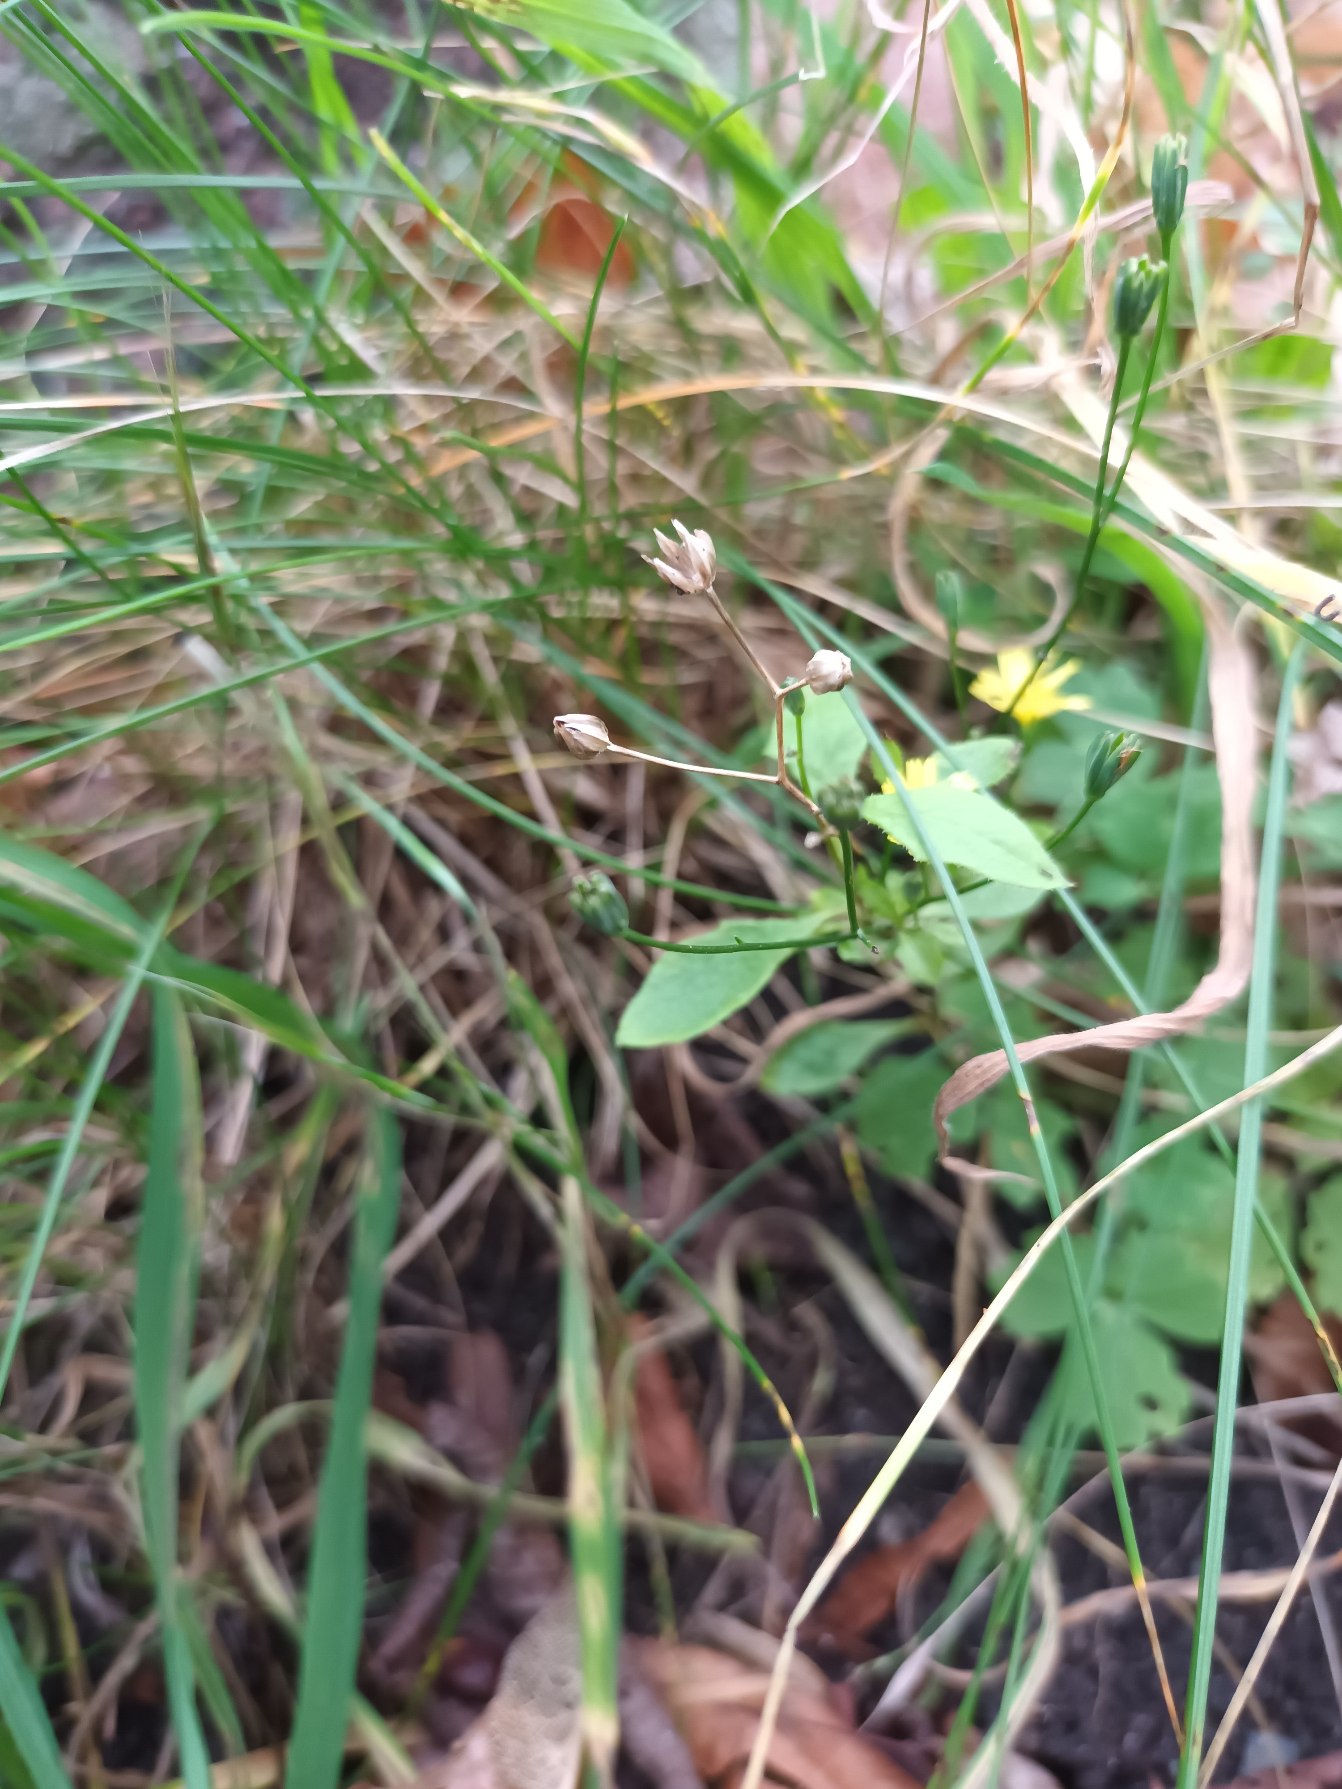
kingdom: Plantae
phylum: Tracheophyta
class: Magnoliopsida
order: Asterales
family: Asteraceae
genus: Lapsana
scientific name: Lapsana communis
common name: Haremad
